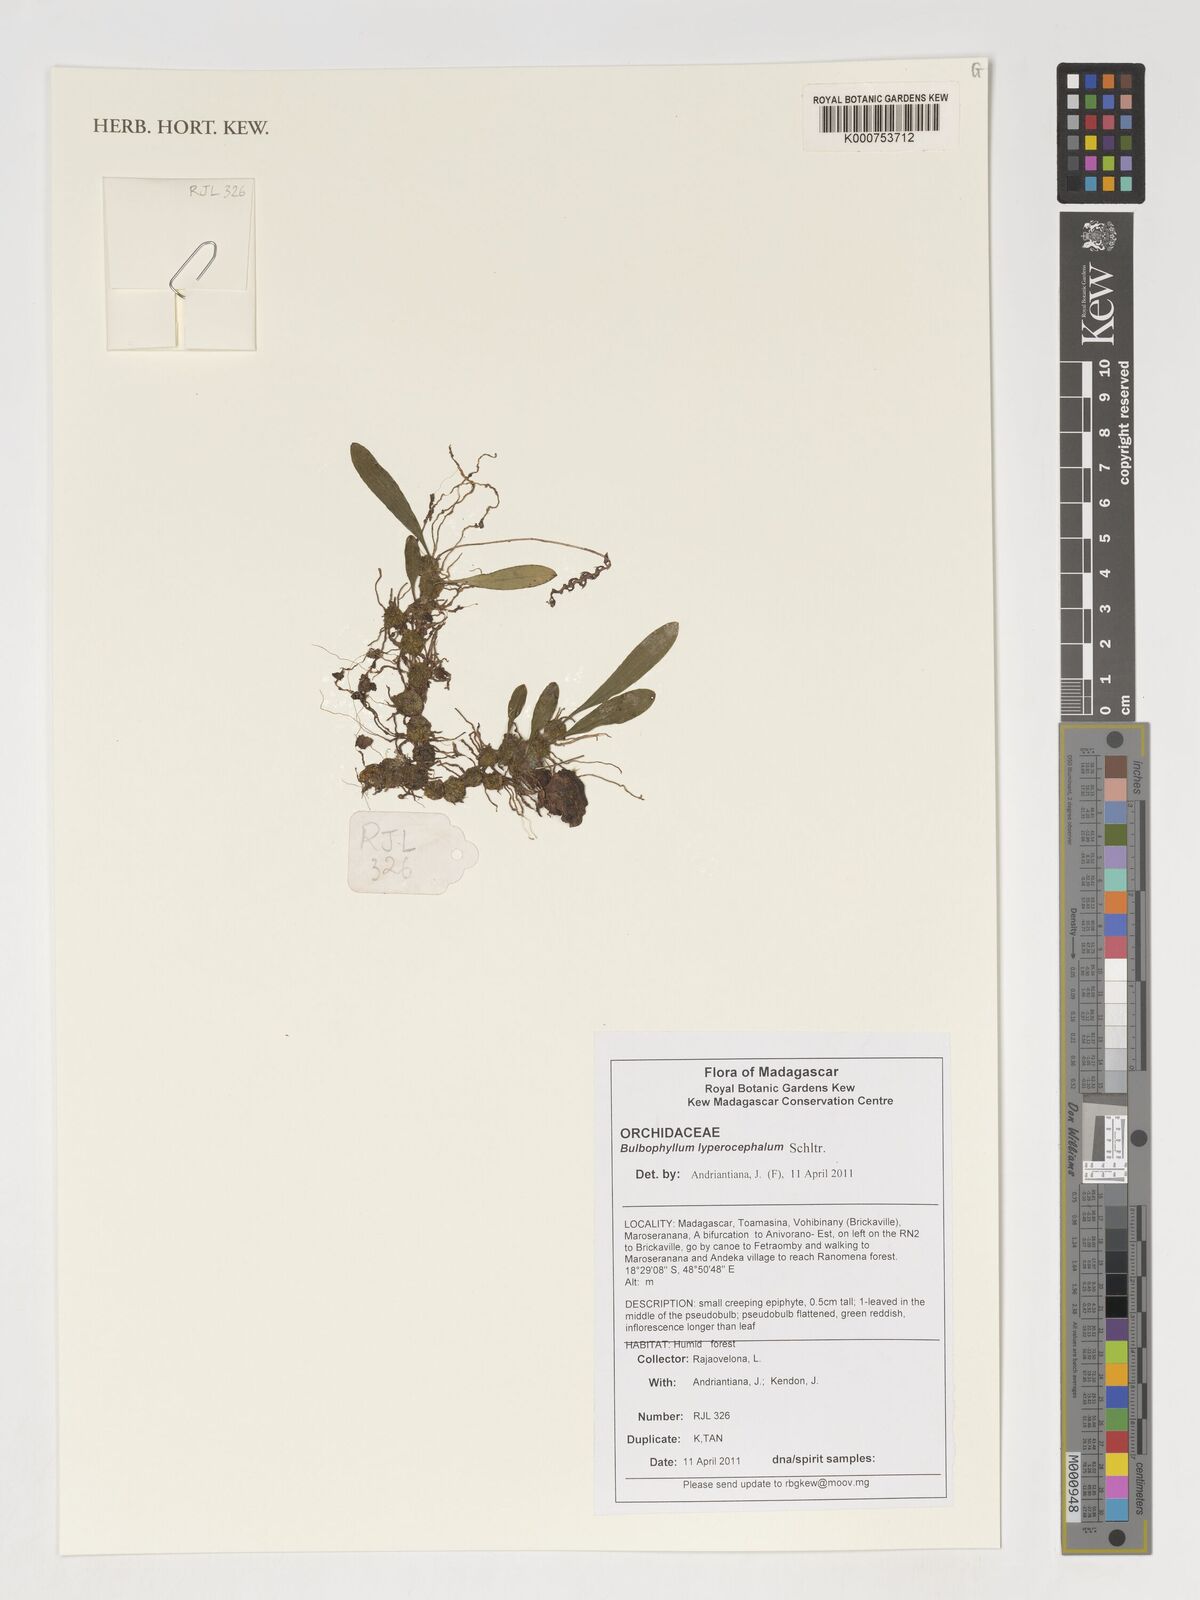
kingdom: Plantae
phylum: Tracheophyta
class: Liliopsida
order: Asparagales
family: Orchidaceae
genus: Bulbophyllum
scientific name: Bulbophyllum lyperocephalum
